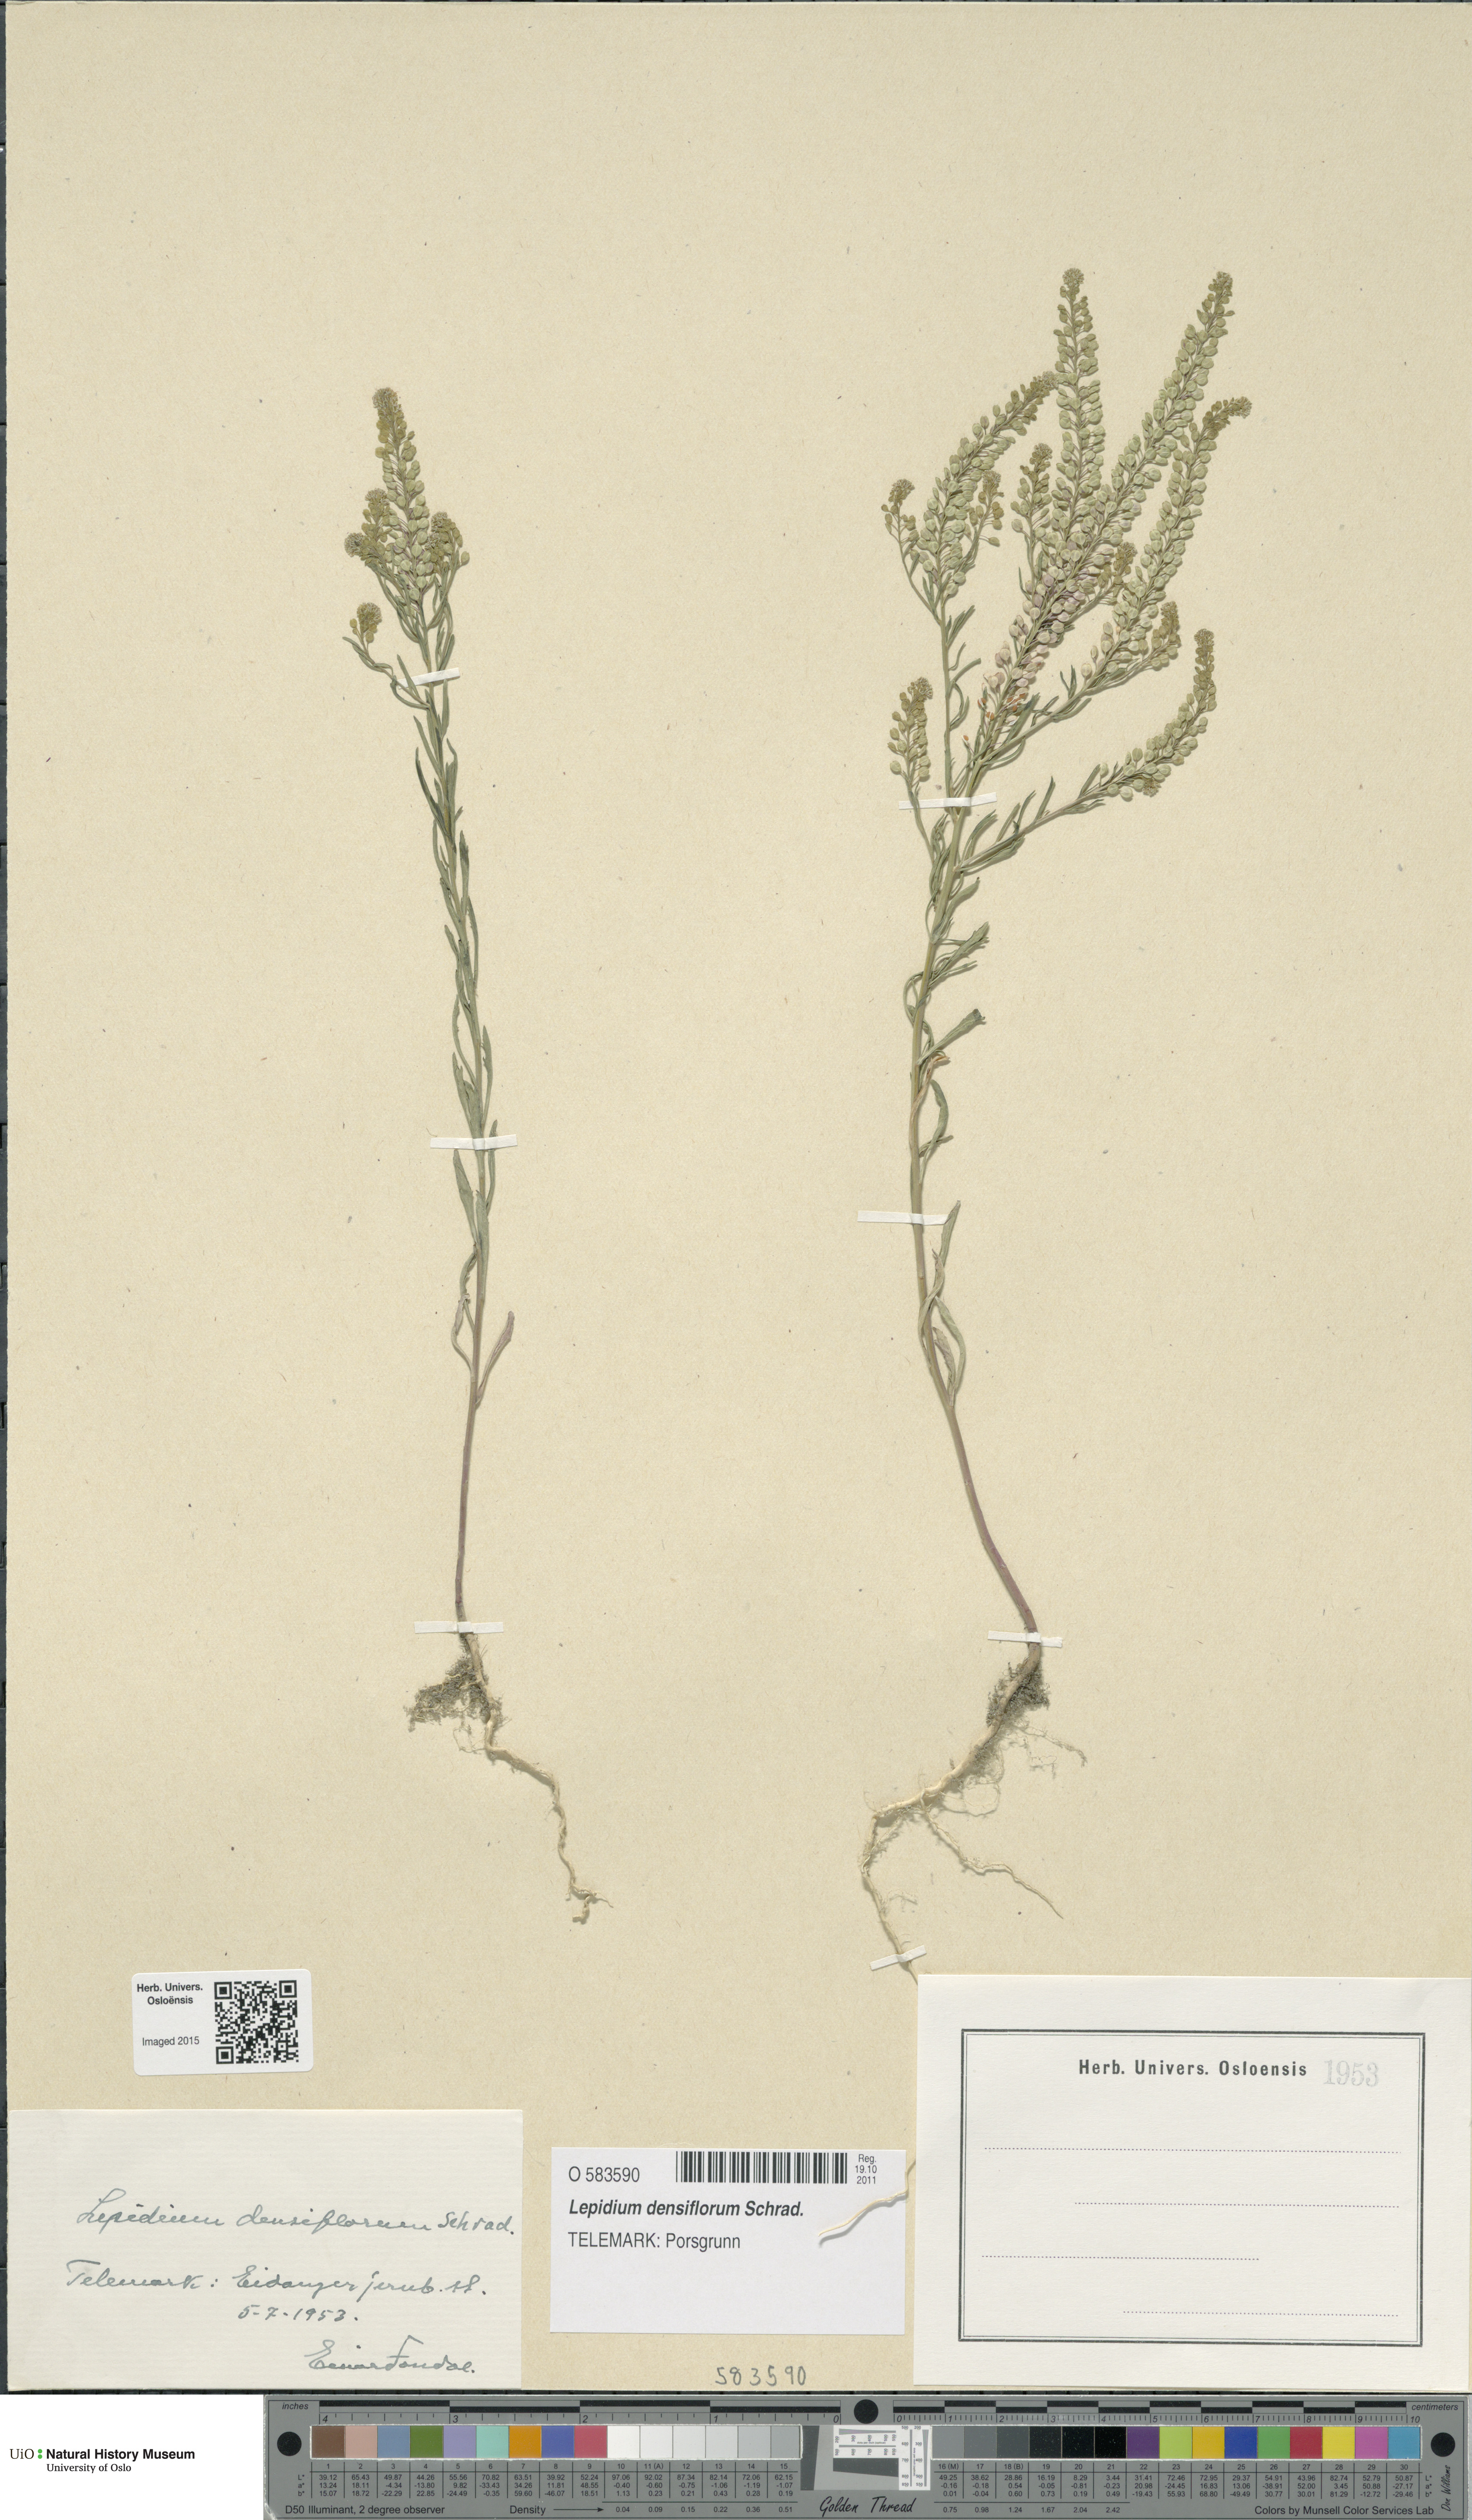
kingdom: Plantae
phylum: Tracheophyta
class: Magnoliopsida
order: Brassicales
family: Brassicaceae
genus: Lepidium
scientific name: Lepidium densiflorum
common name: Miner's pepperwort
